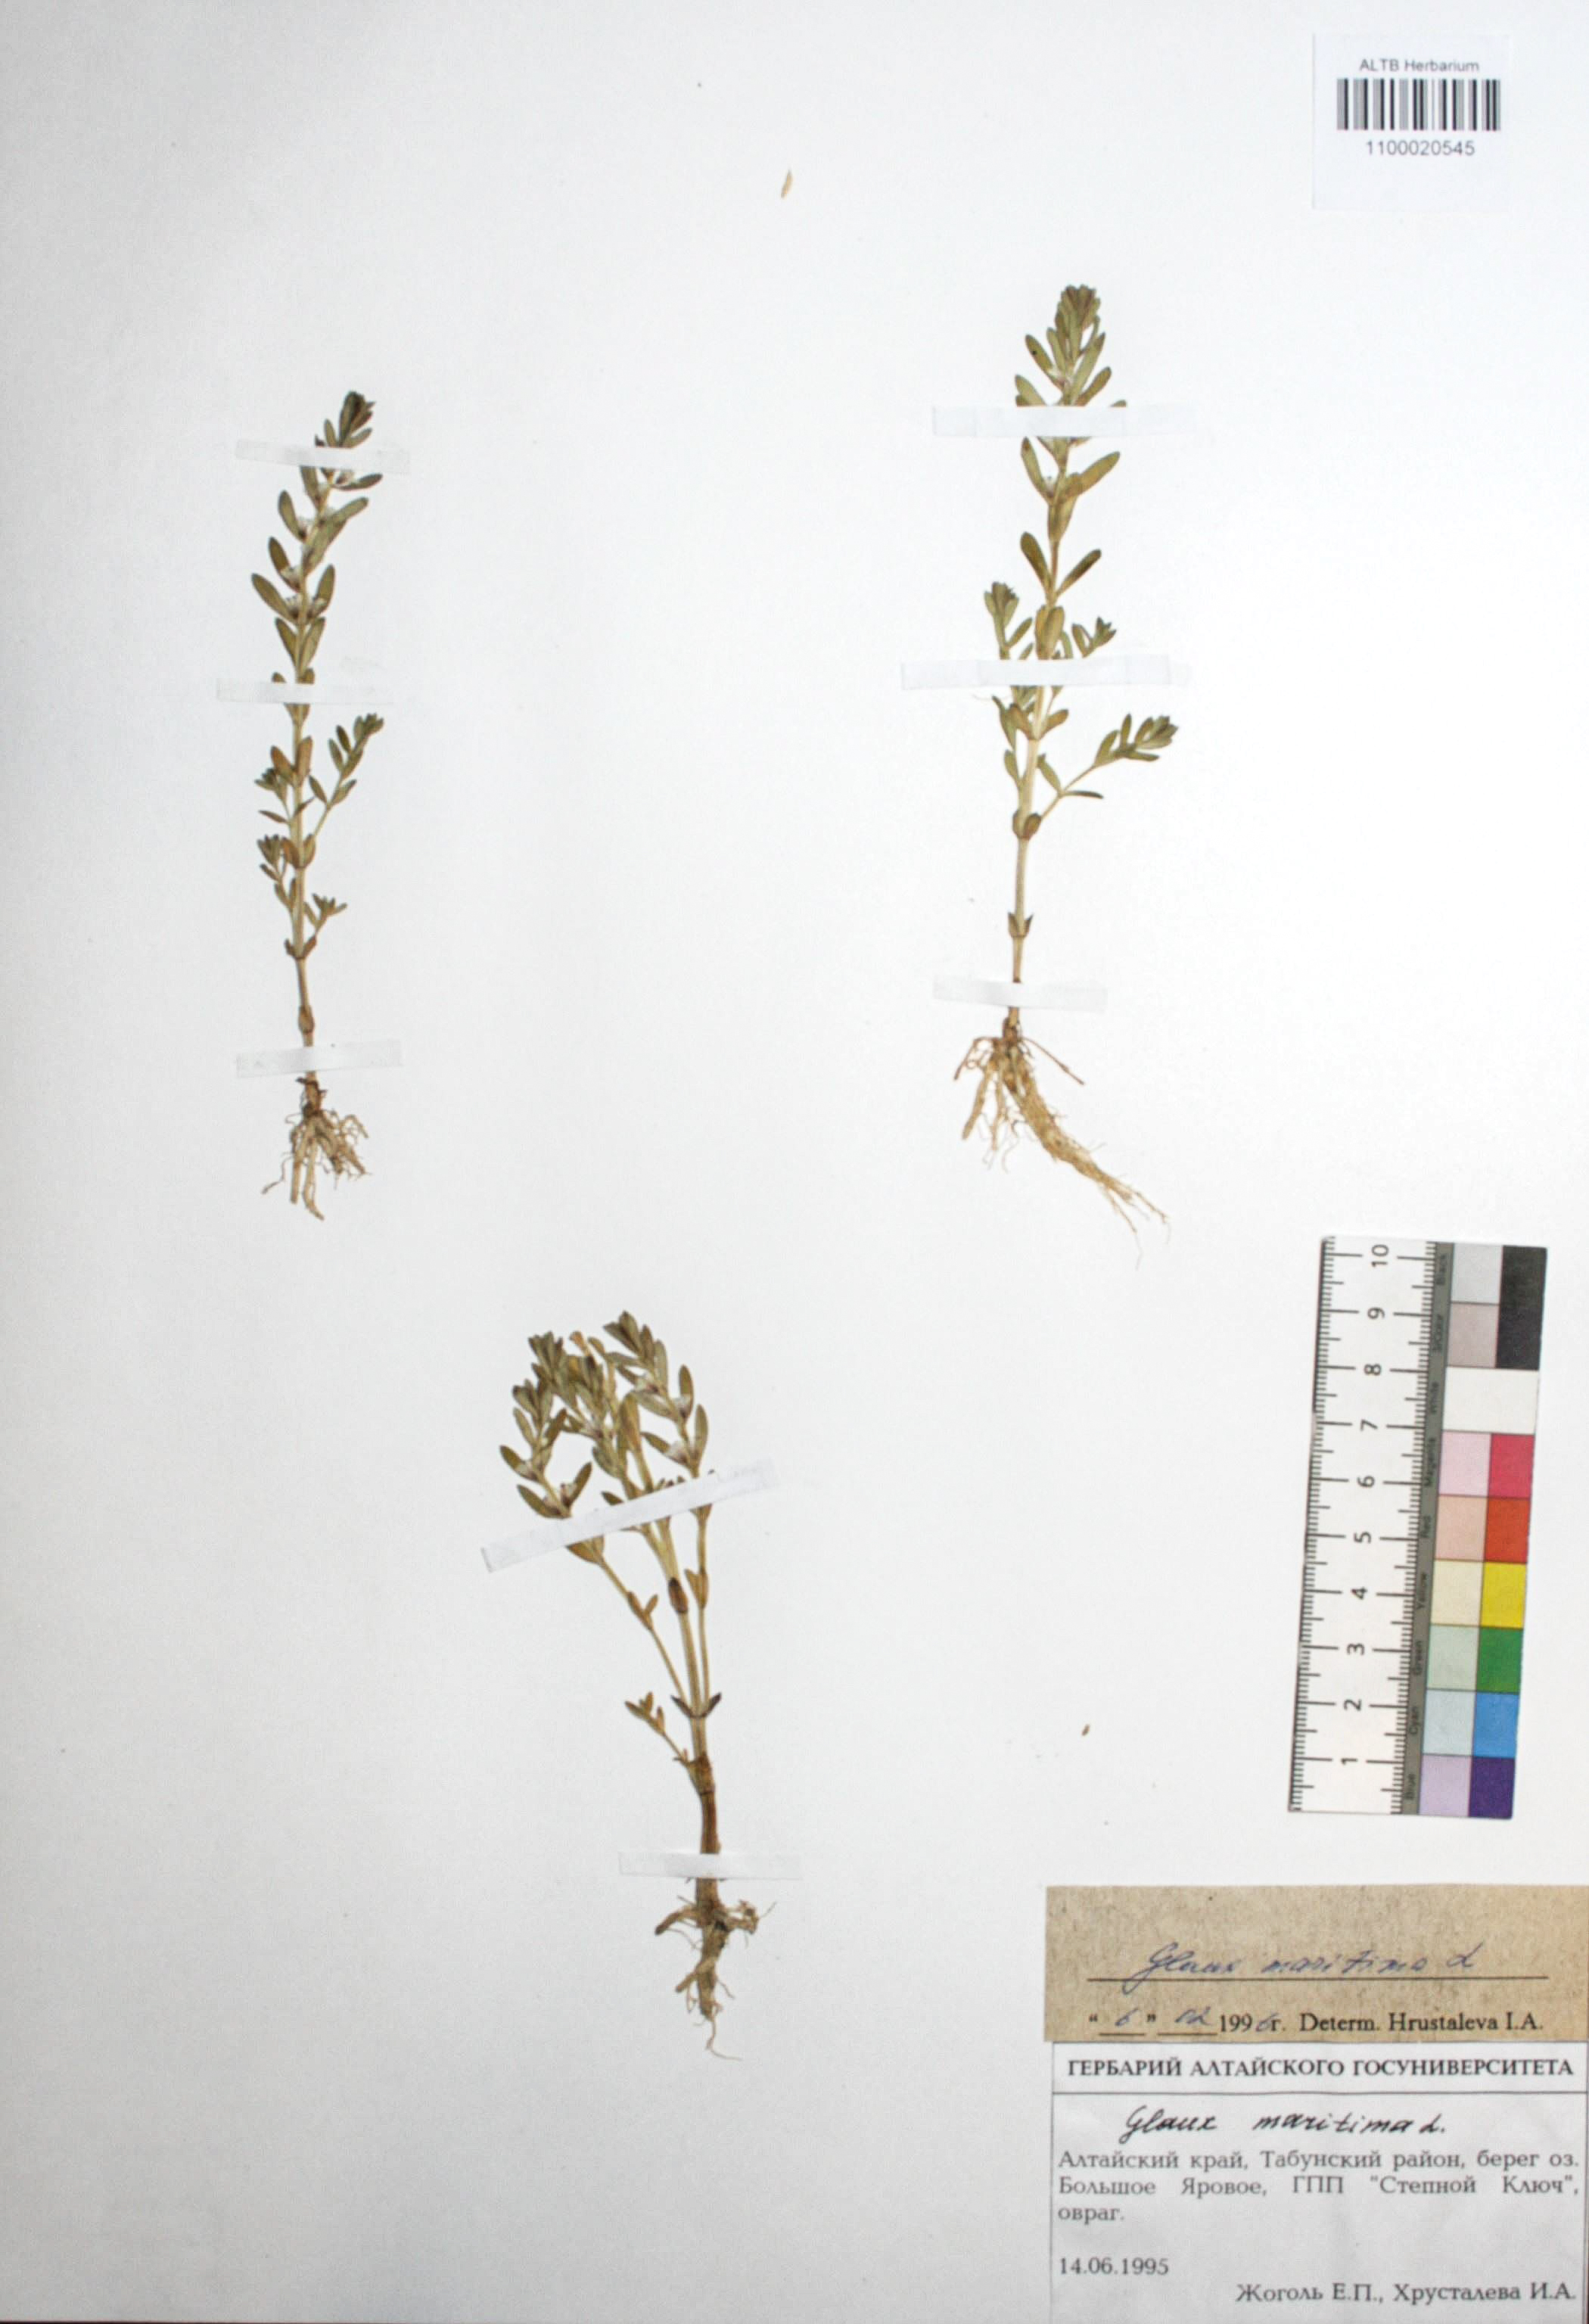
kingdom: Plantae
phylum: Tracheophyta
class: Magnoliopsida
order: Ericales
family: Primulaceae
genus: Lysimachia
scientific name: Lysimachia maritima
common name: Sea milkwort
